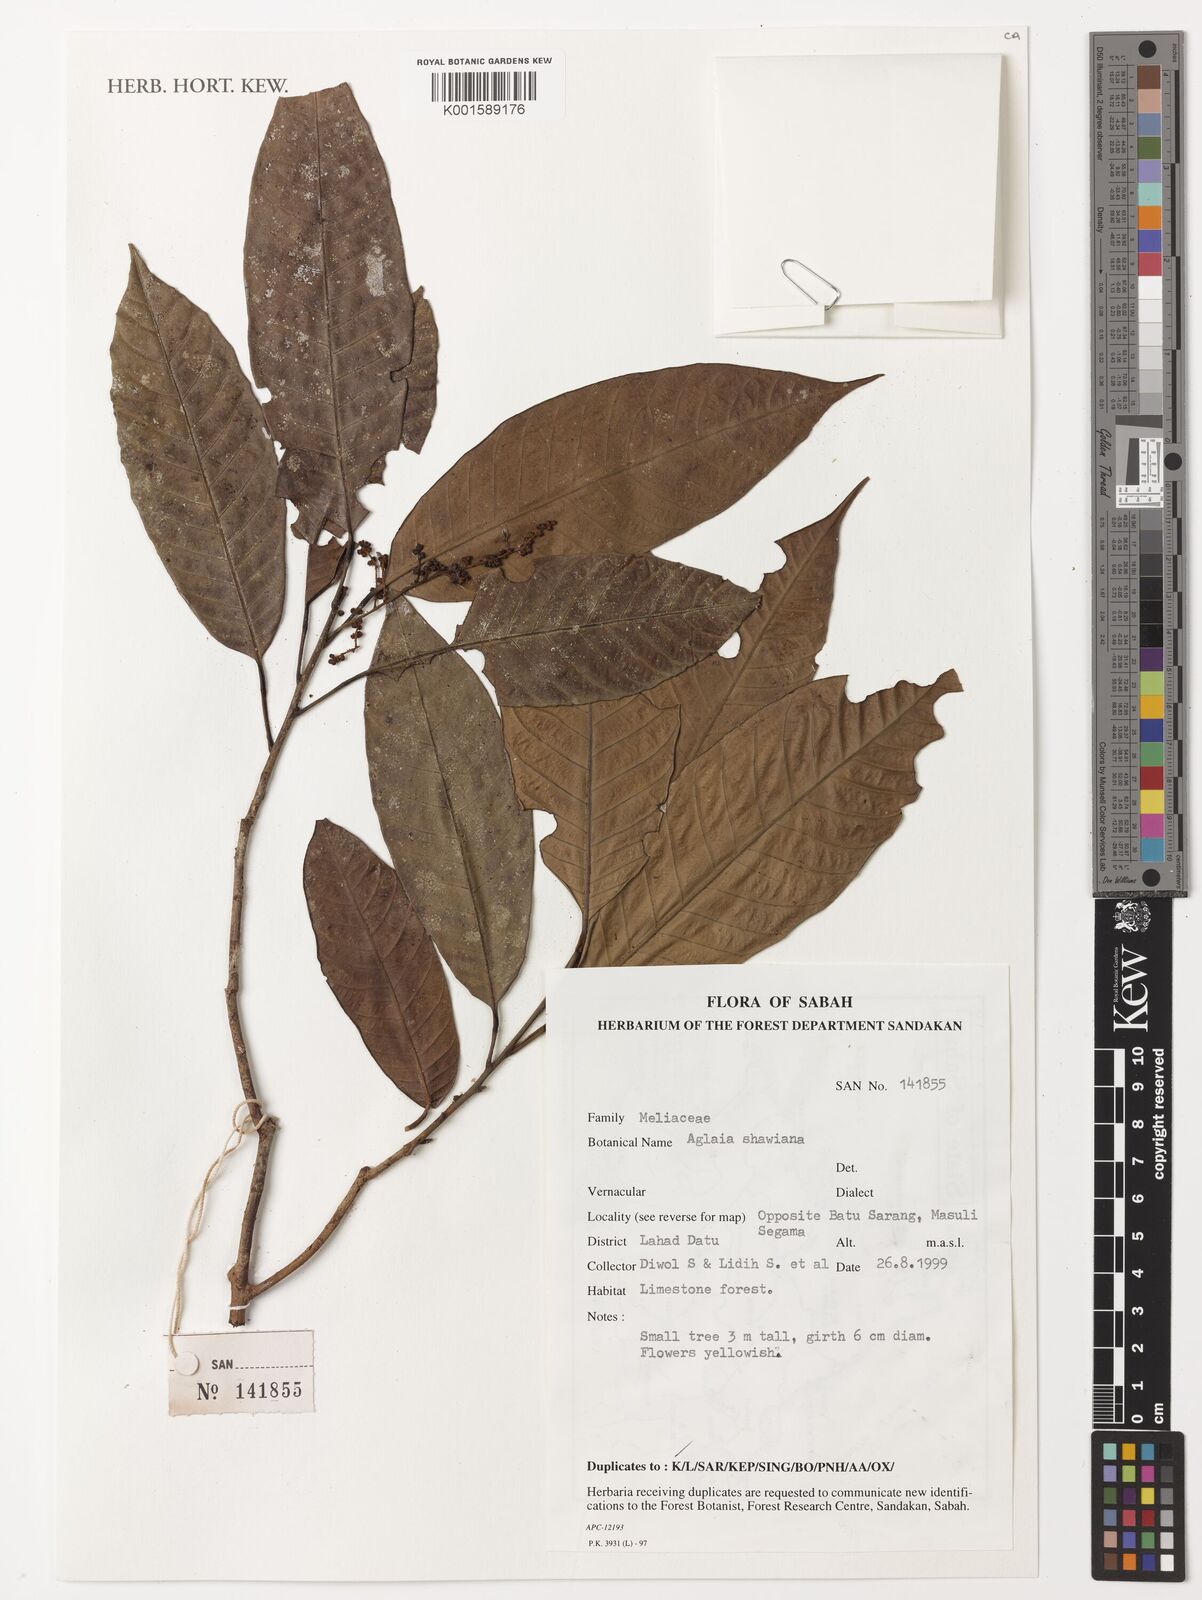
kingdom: Plantae
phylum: Tracheophyta
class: Magnoliopsida
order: Sapindales
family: Meliaceae
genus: Aglaia
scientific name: Aglaia simplicifolia
